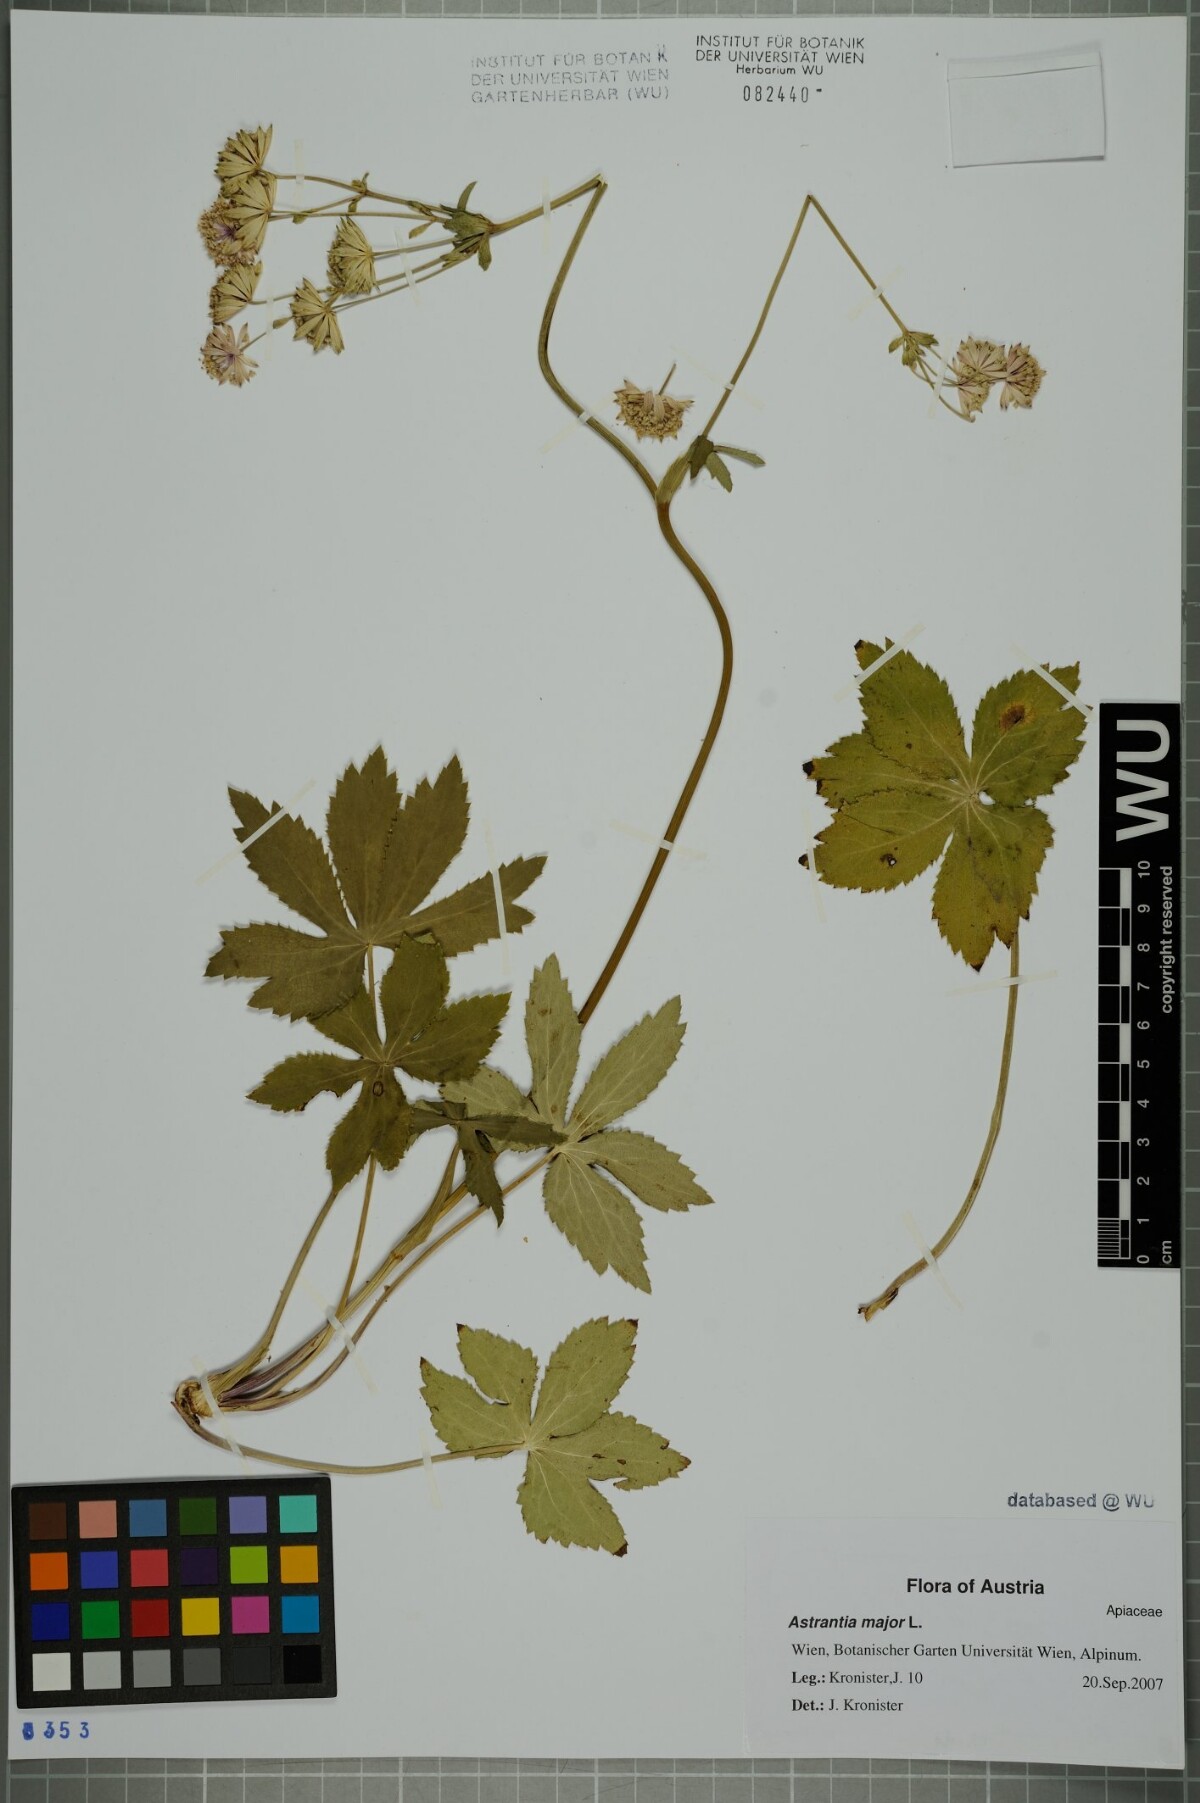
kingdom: Plantae
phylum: Tracheophyta
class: Magnoliopsida
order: Apiales
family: Apiaceae
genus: Astrantia
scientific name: Astrantia major
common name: Greater masterwort
